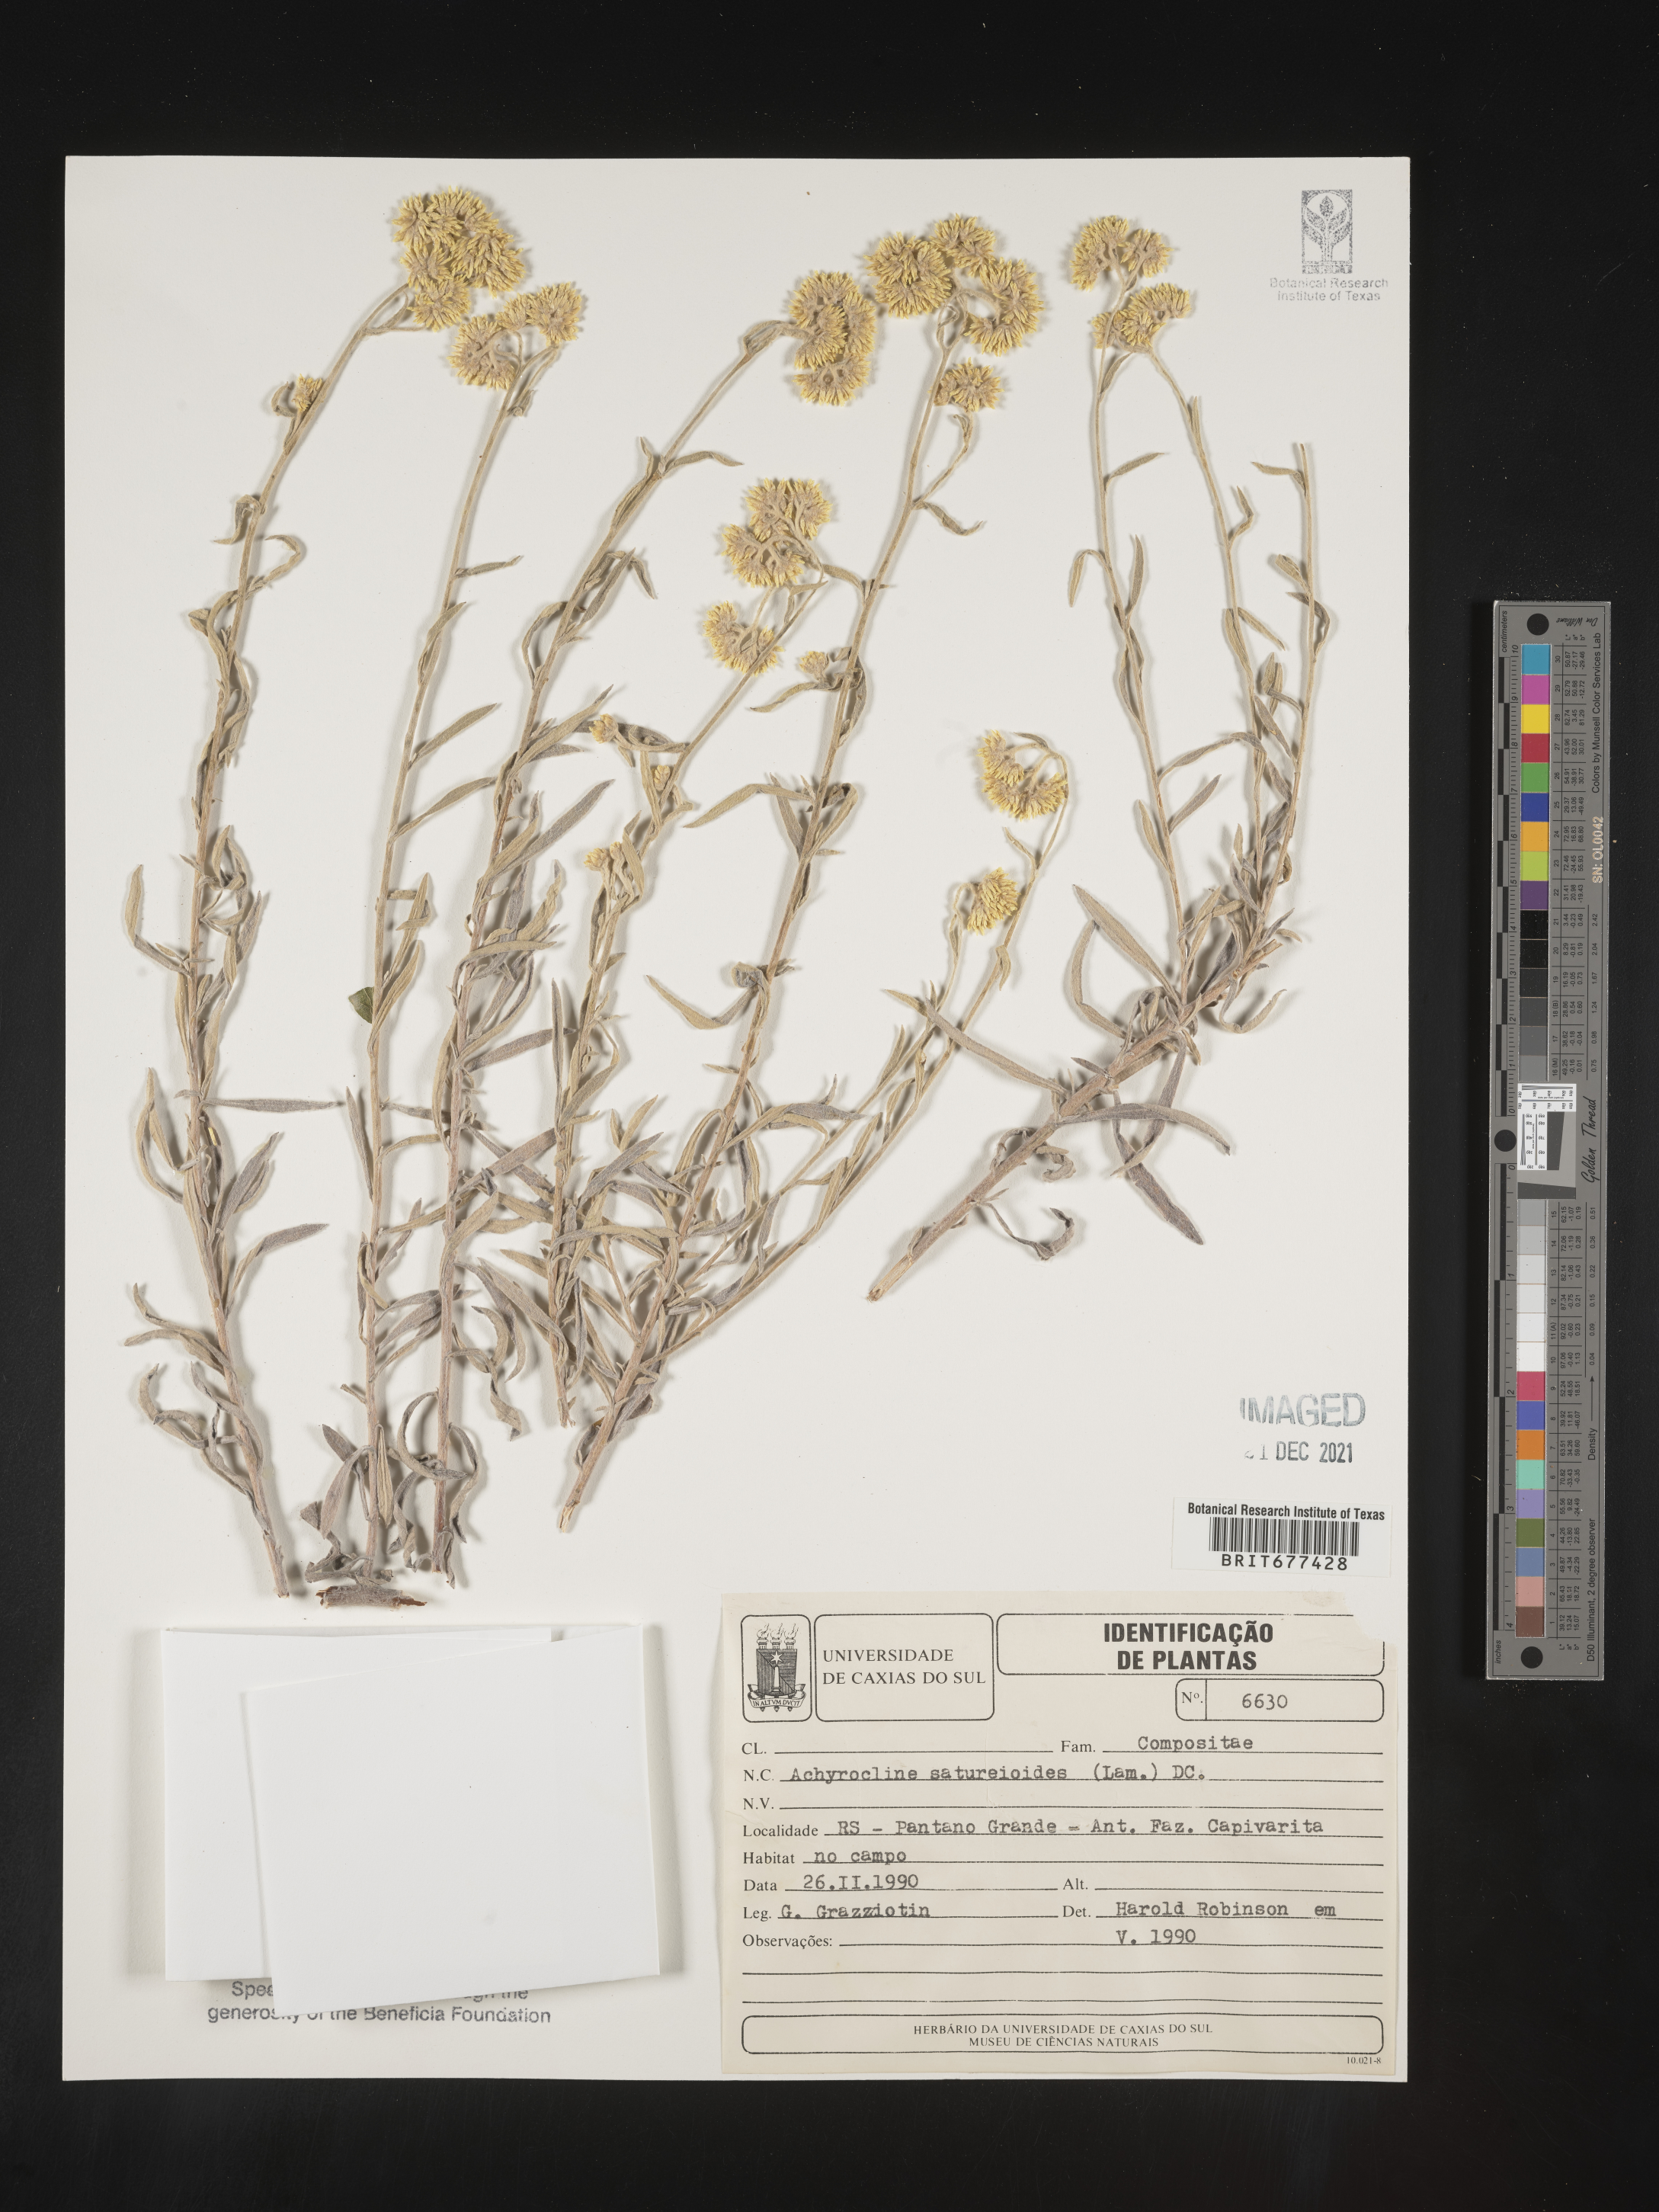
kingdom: Plantae
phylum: Tracheophyta
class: Magnoliopsida
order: Asterales
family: Asteraceae
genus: Achyrocline
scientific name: Achyrocline
